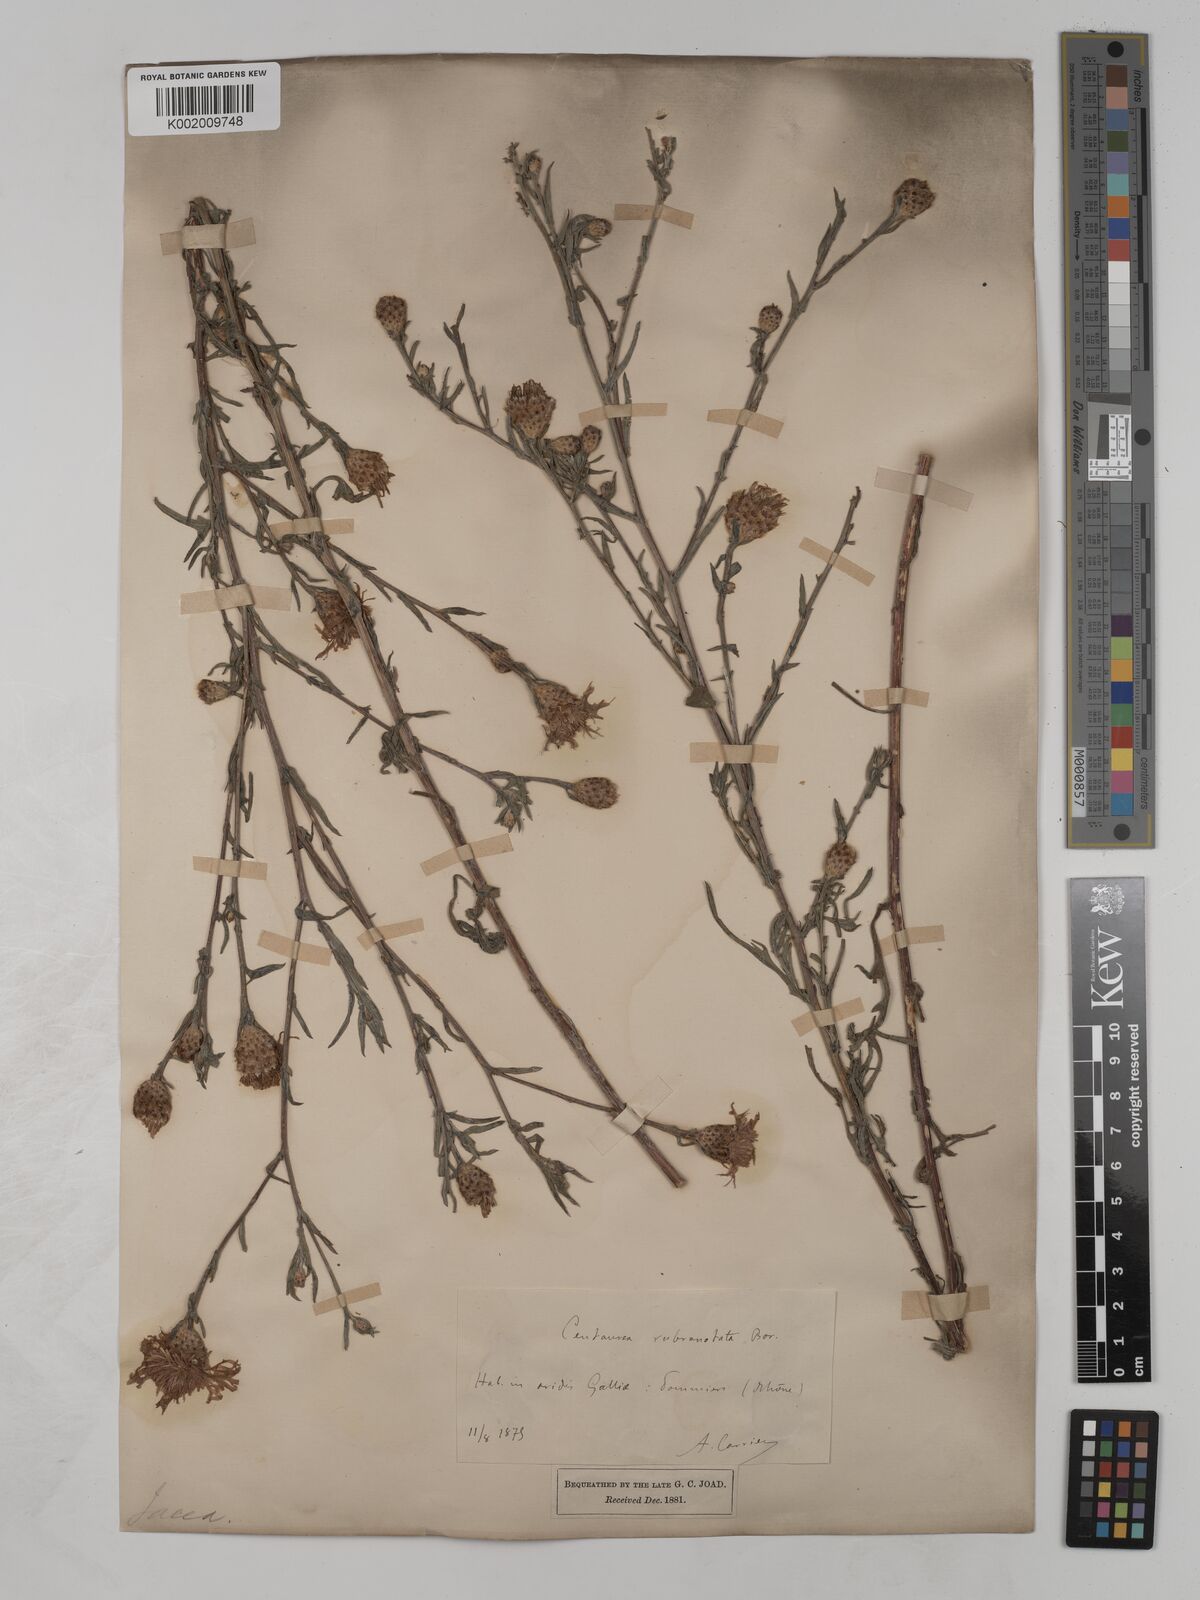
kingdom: Plantae
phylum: Tracheophyta
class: Magnoliopsida
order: Asterales
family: Asteraceae
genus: Centaurea
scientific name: Centaurea timbalii
